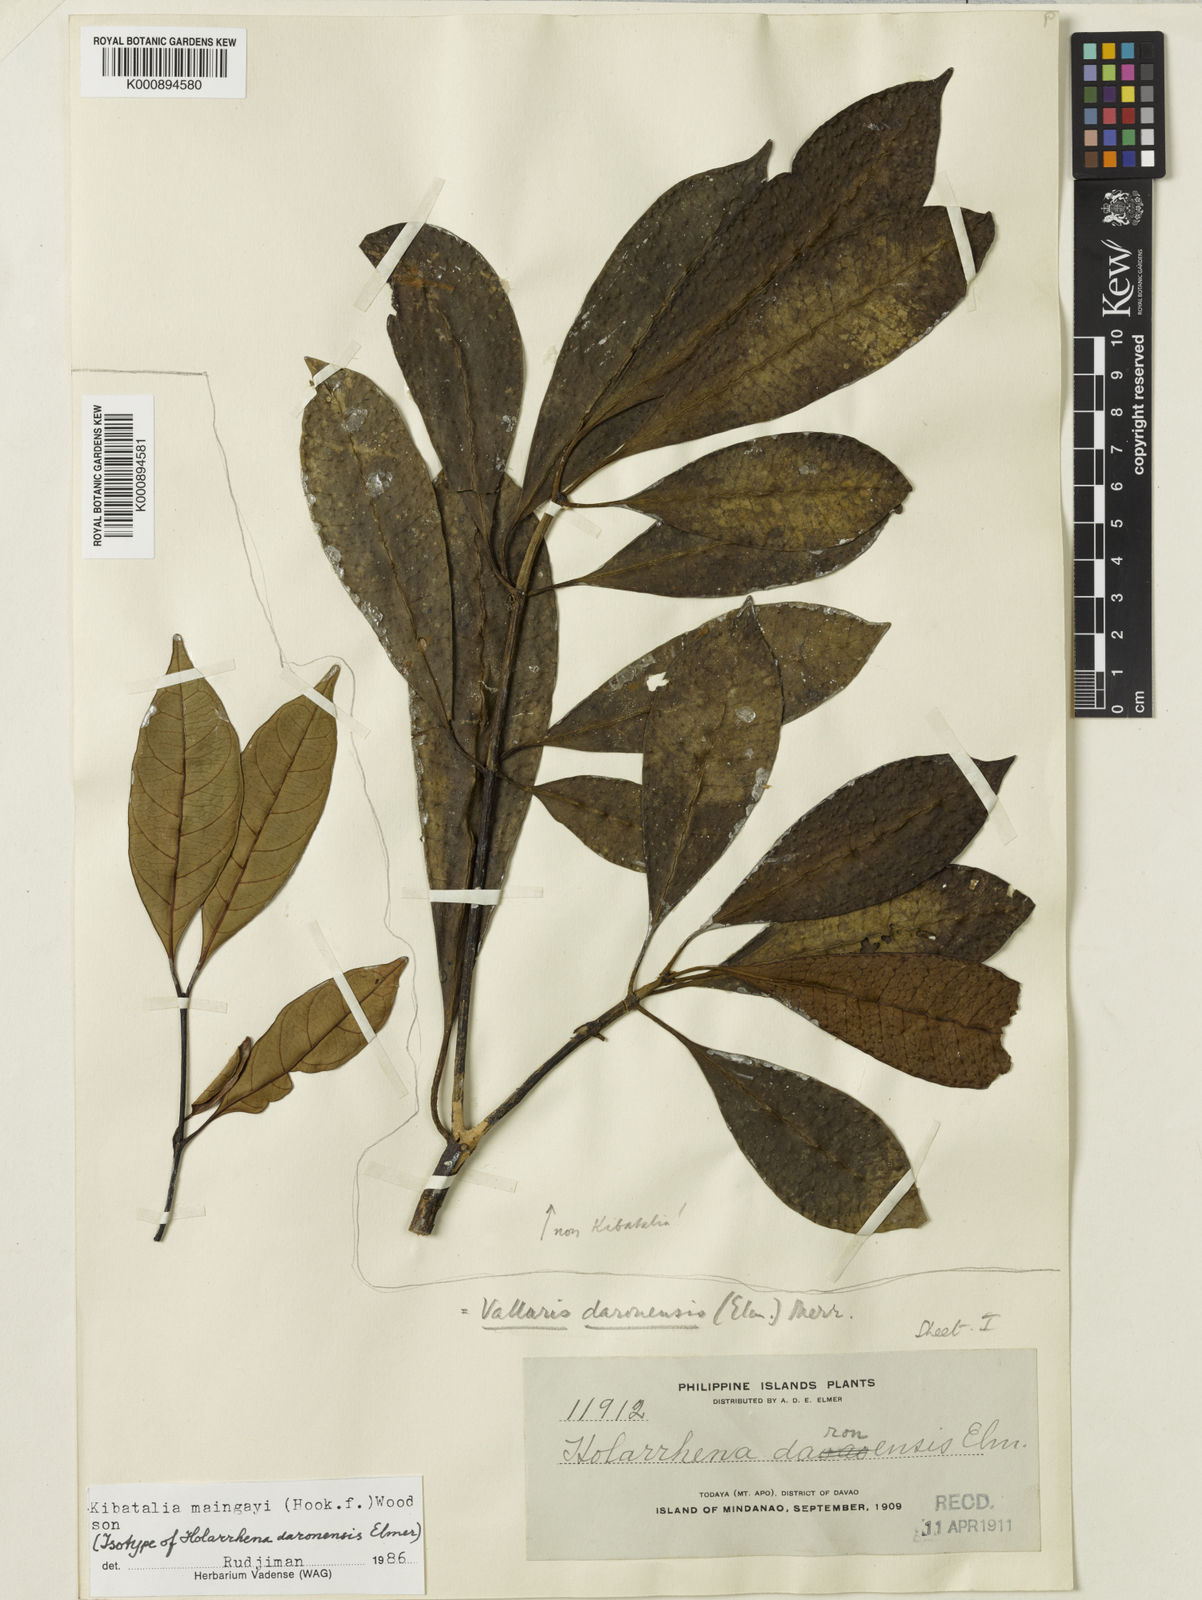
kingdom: Plantae
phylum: Tracheophyta
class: Magnoliopsida
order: Gentianales
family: Apocynaceae
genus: Kibatalia
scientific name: Kibatalia maingayi
